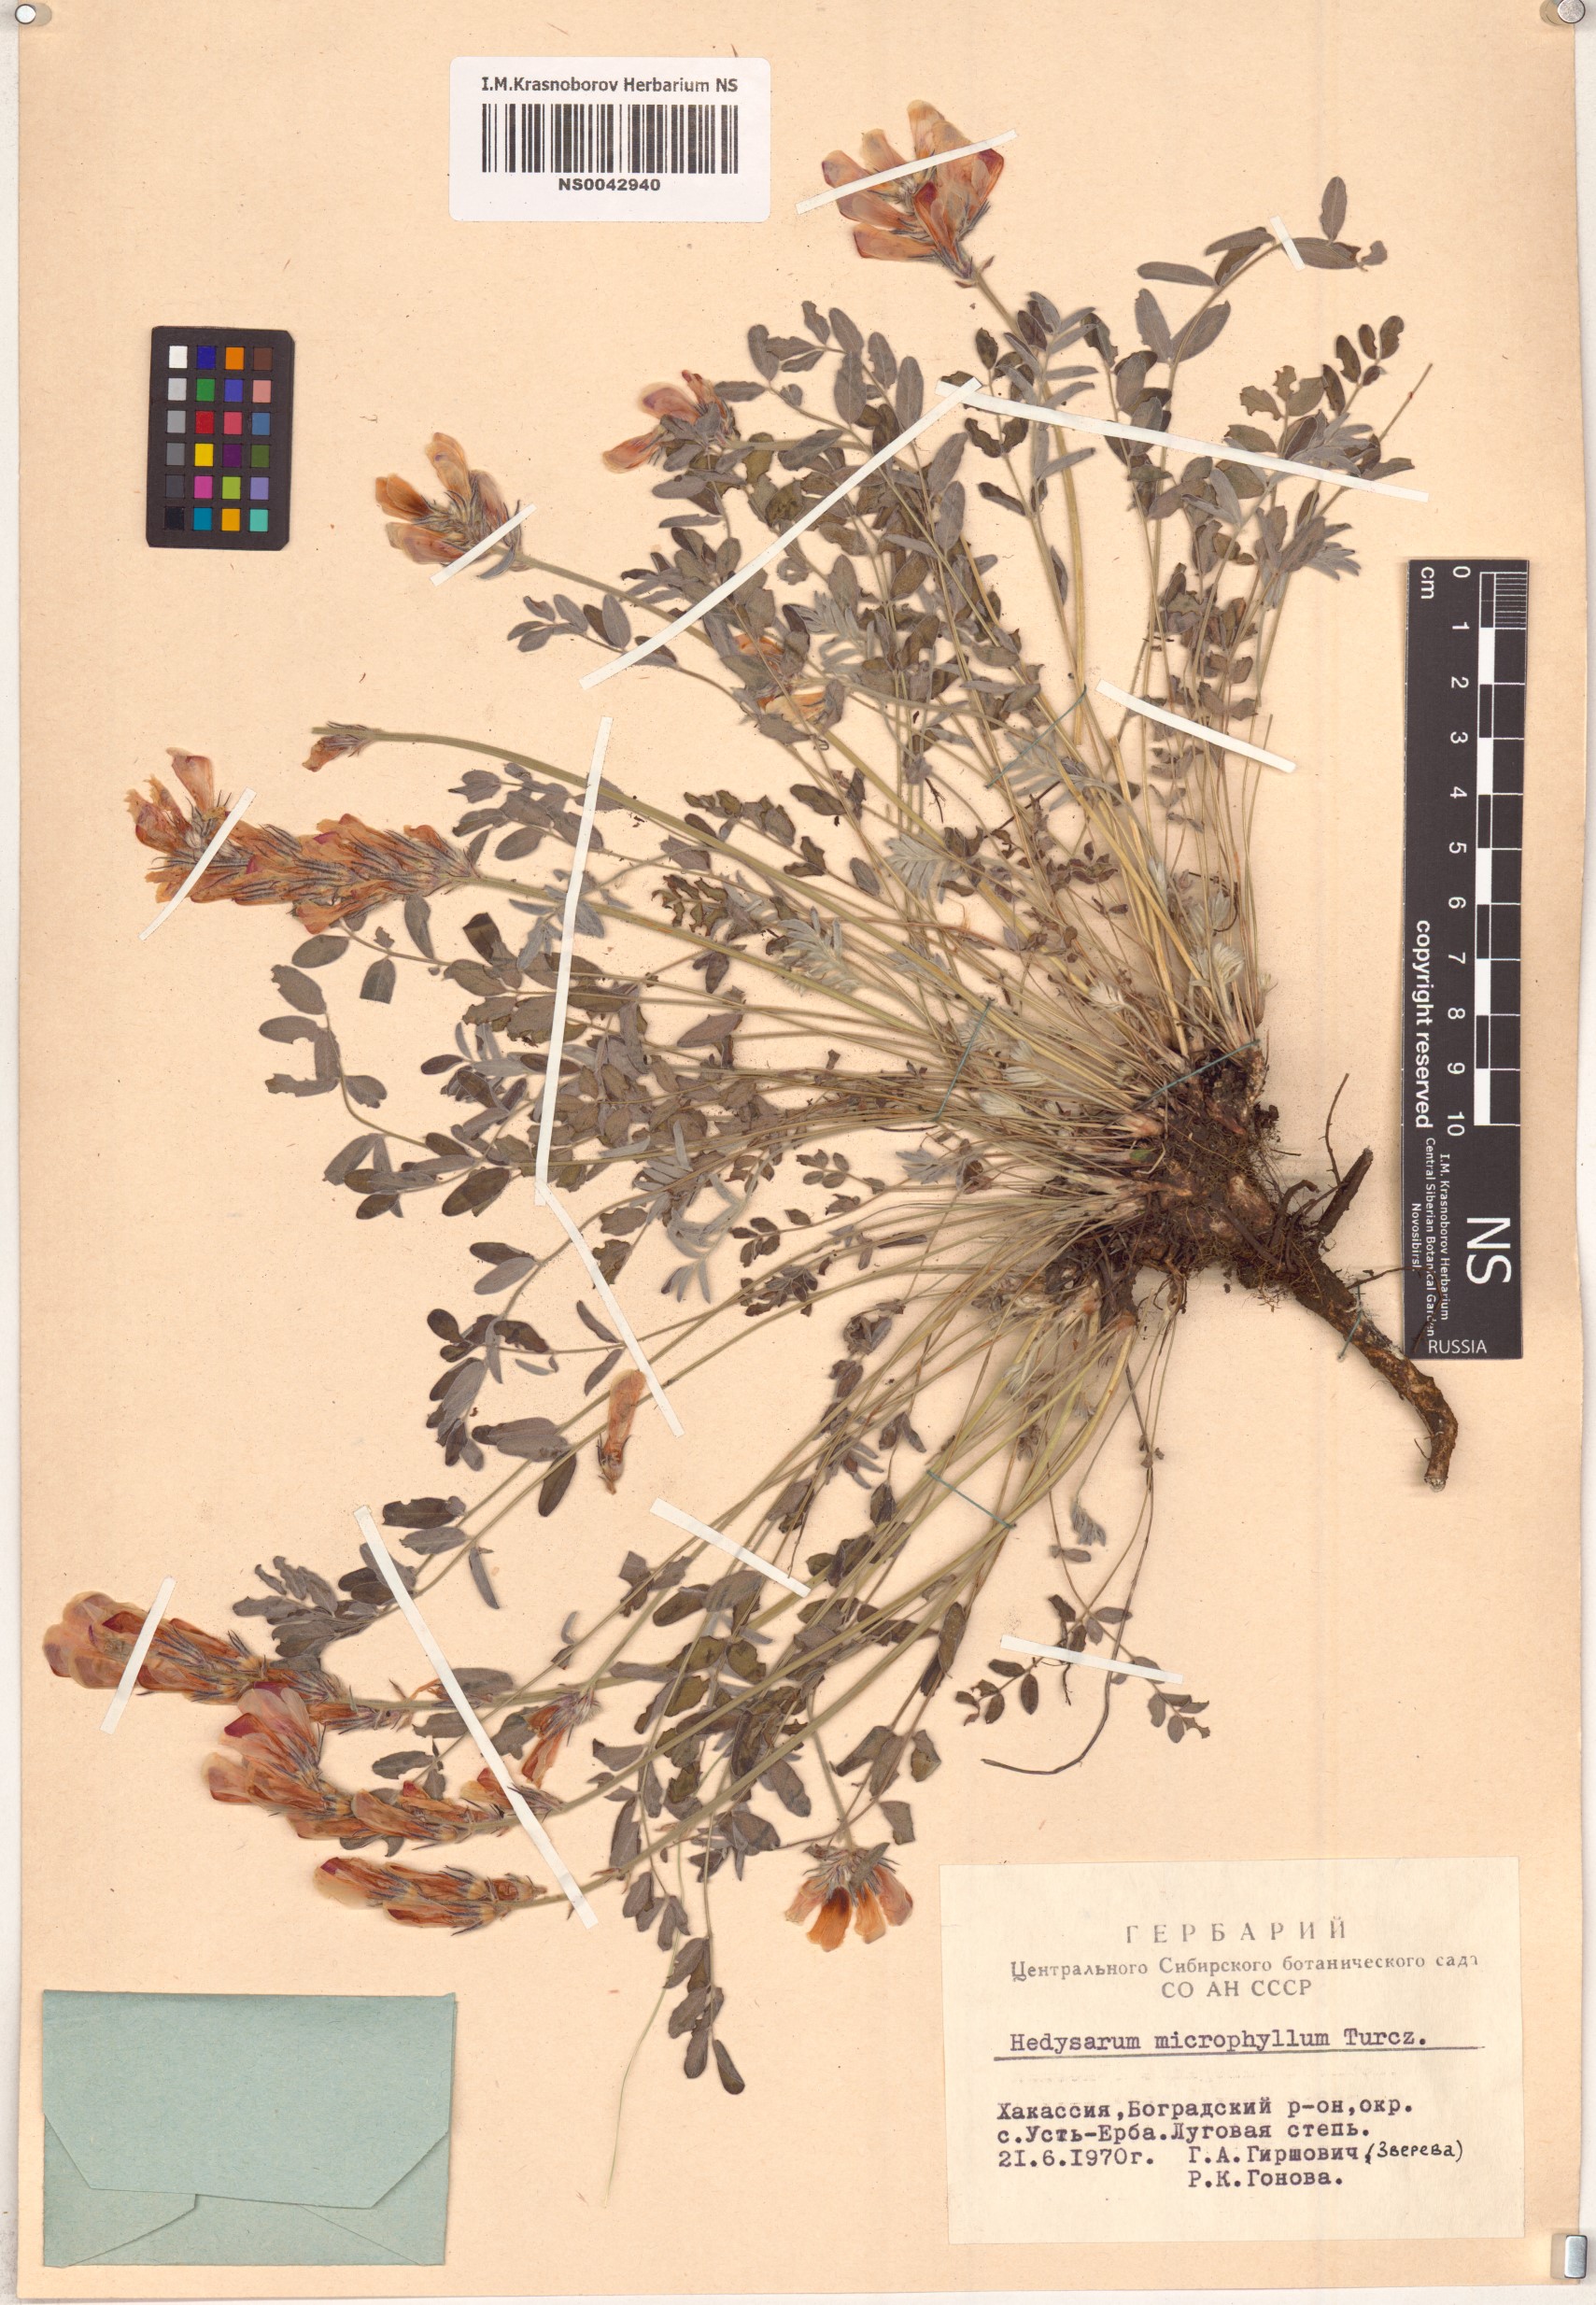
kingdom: Plantae
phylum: Tracheophyta
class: Magnoliopsida
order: Fabales
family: Fabaceae
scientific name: Fabaceae
